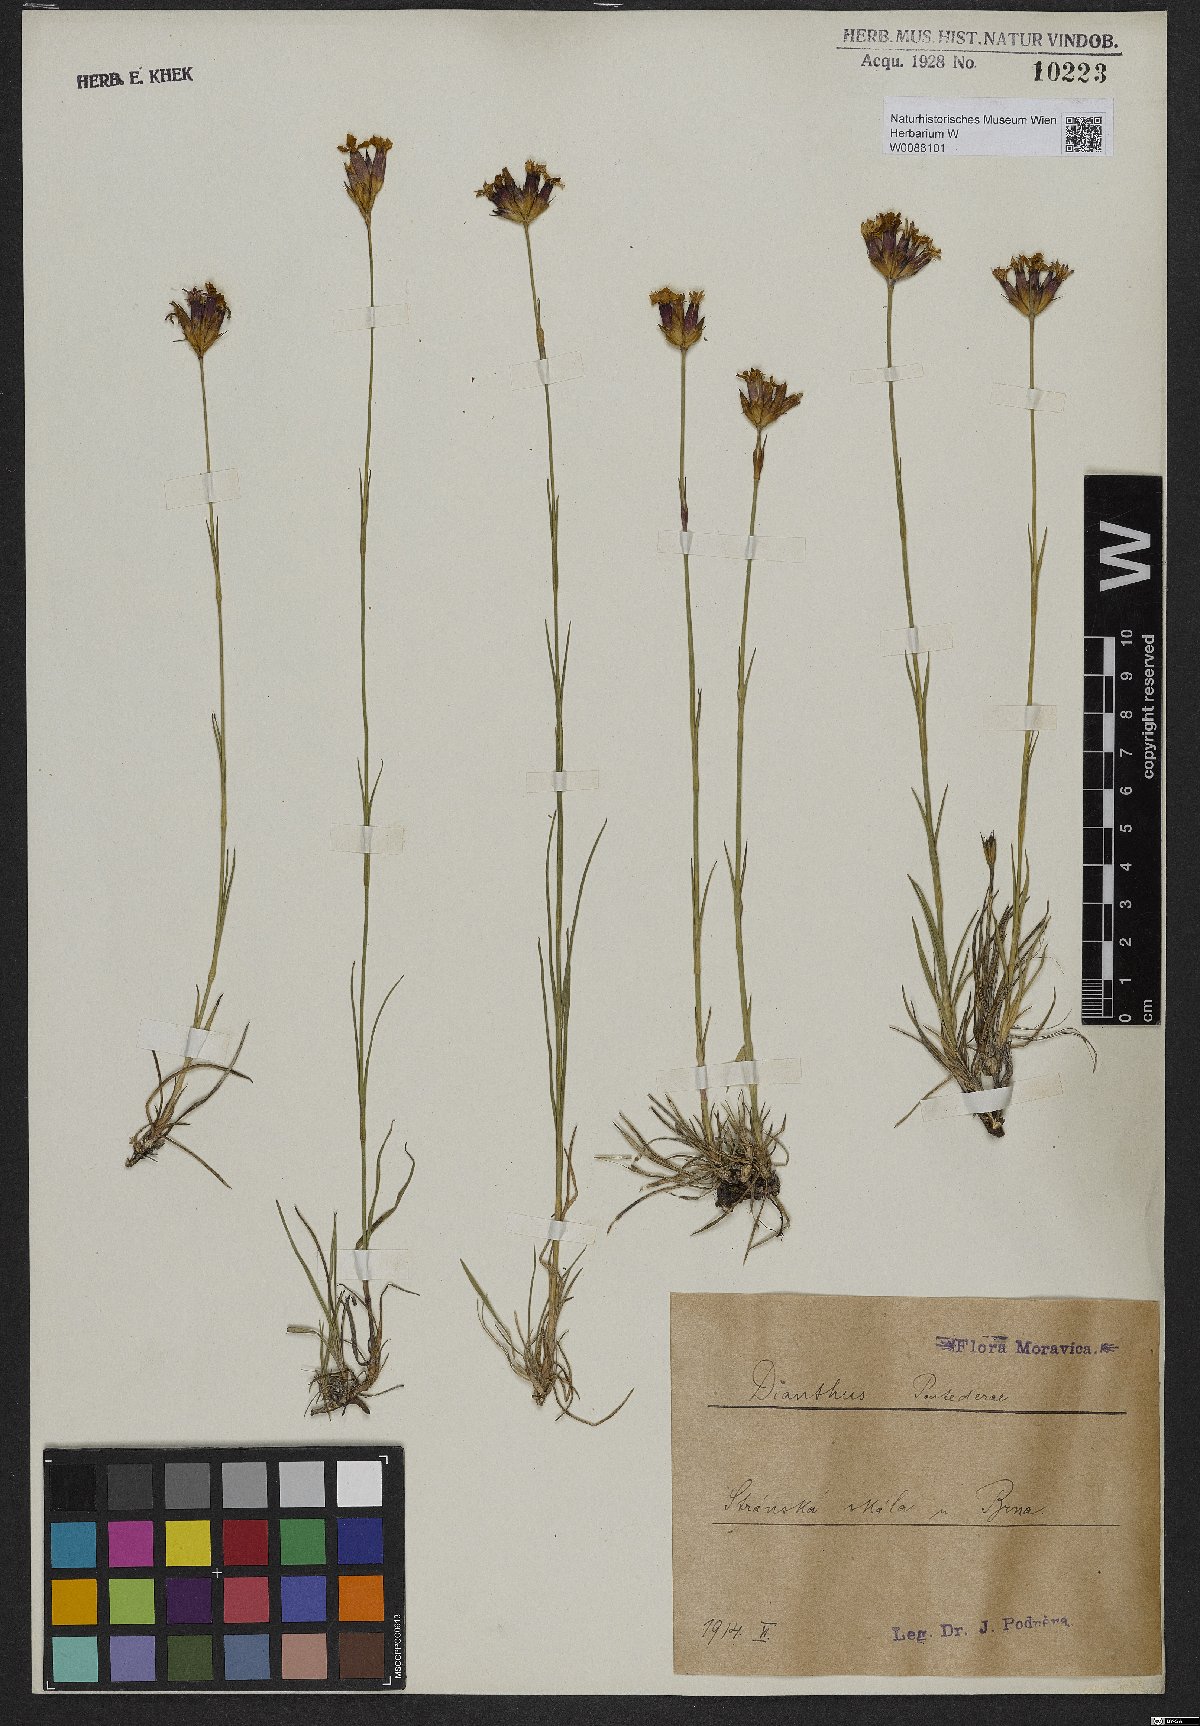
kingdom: Plantae
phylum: Tracheophyta
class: Magnoliopsida
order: Caryophyllales
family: Caryophyllaceae
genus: Dianthus
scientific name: Dianthus pontederae
